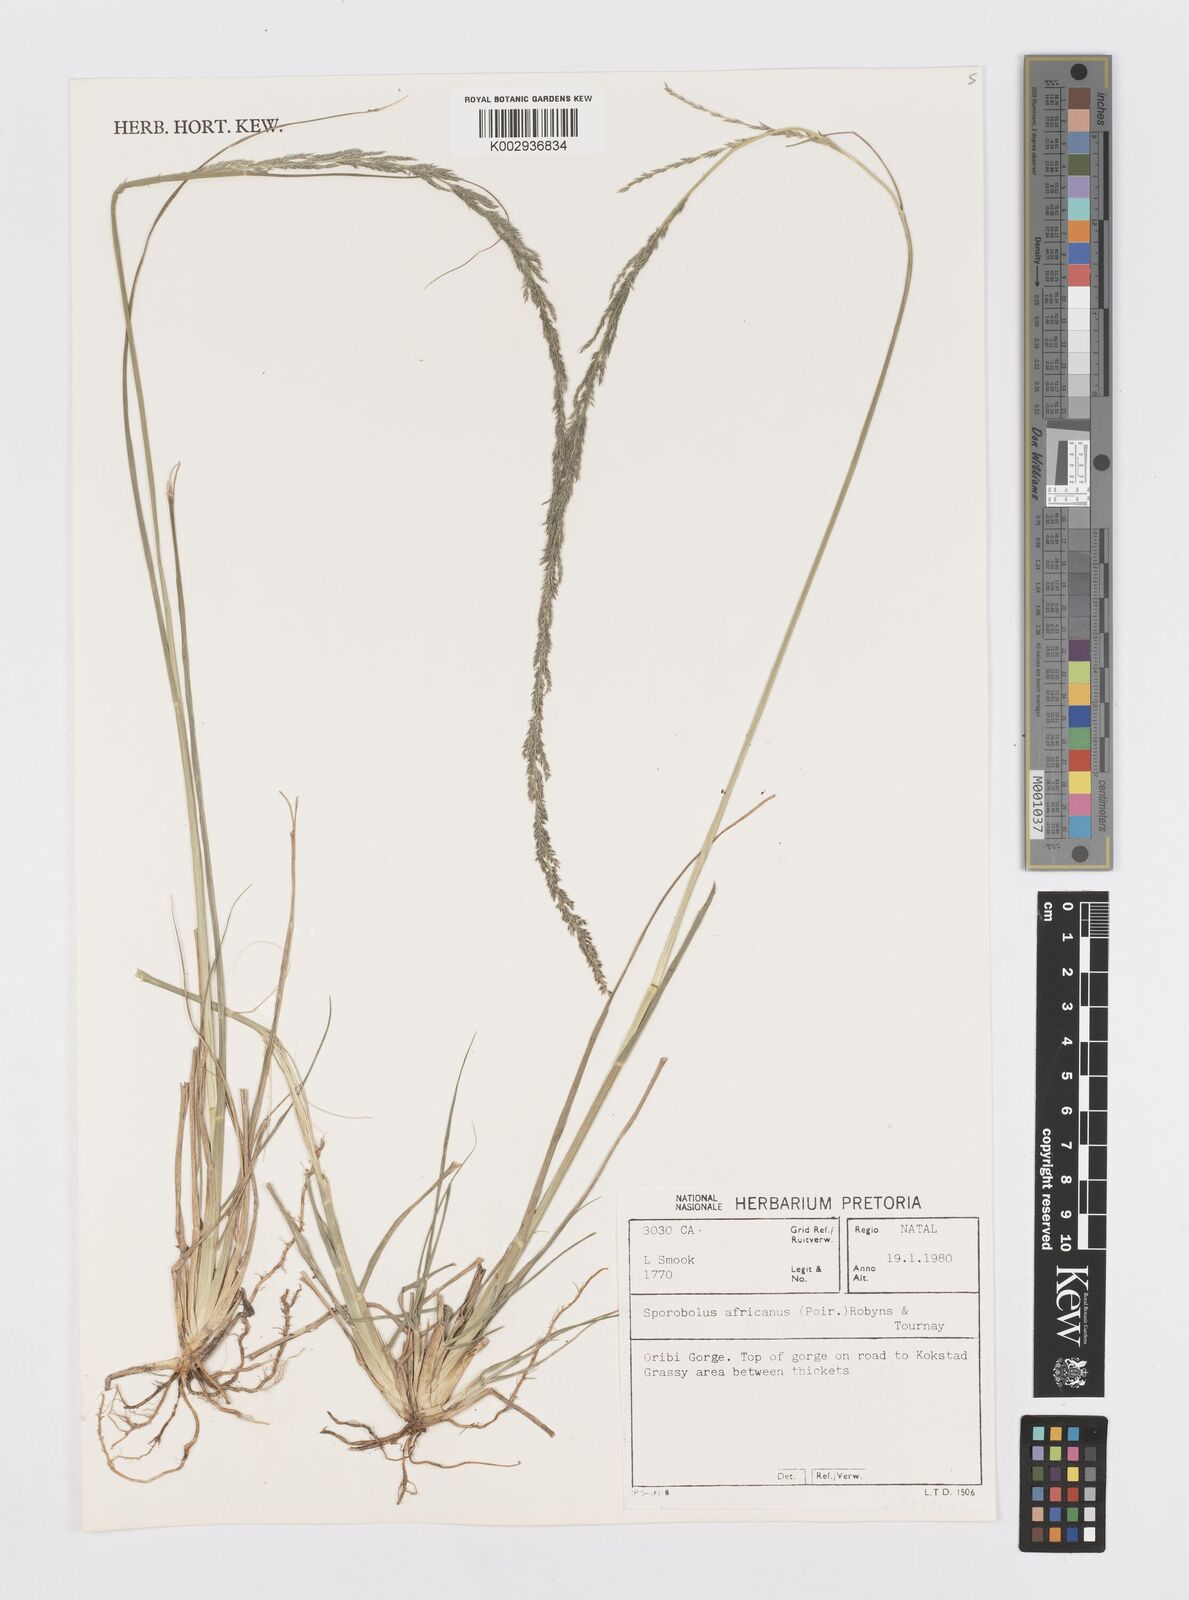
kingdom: Plantae
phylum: Tracheophyta
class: Liliopsida
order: Poales
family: Poaceae
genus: Sporobolus
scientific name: Sporobolus africanus
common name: African dropseed
